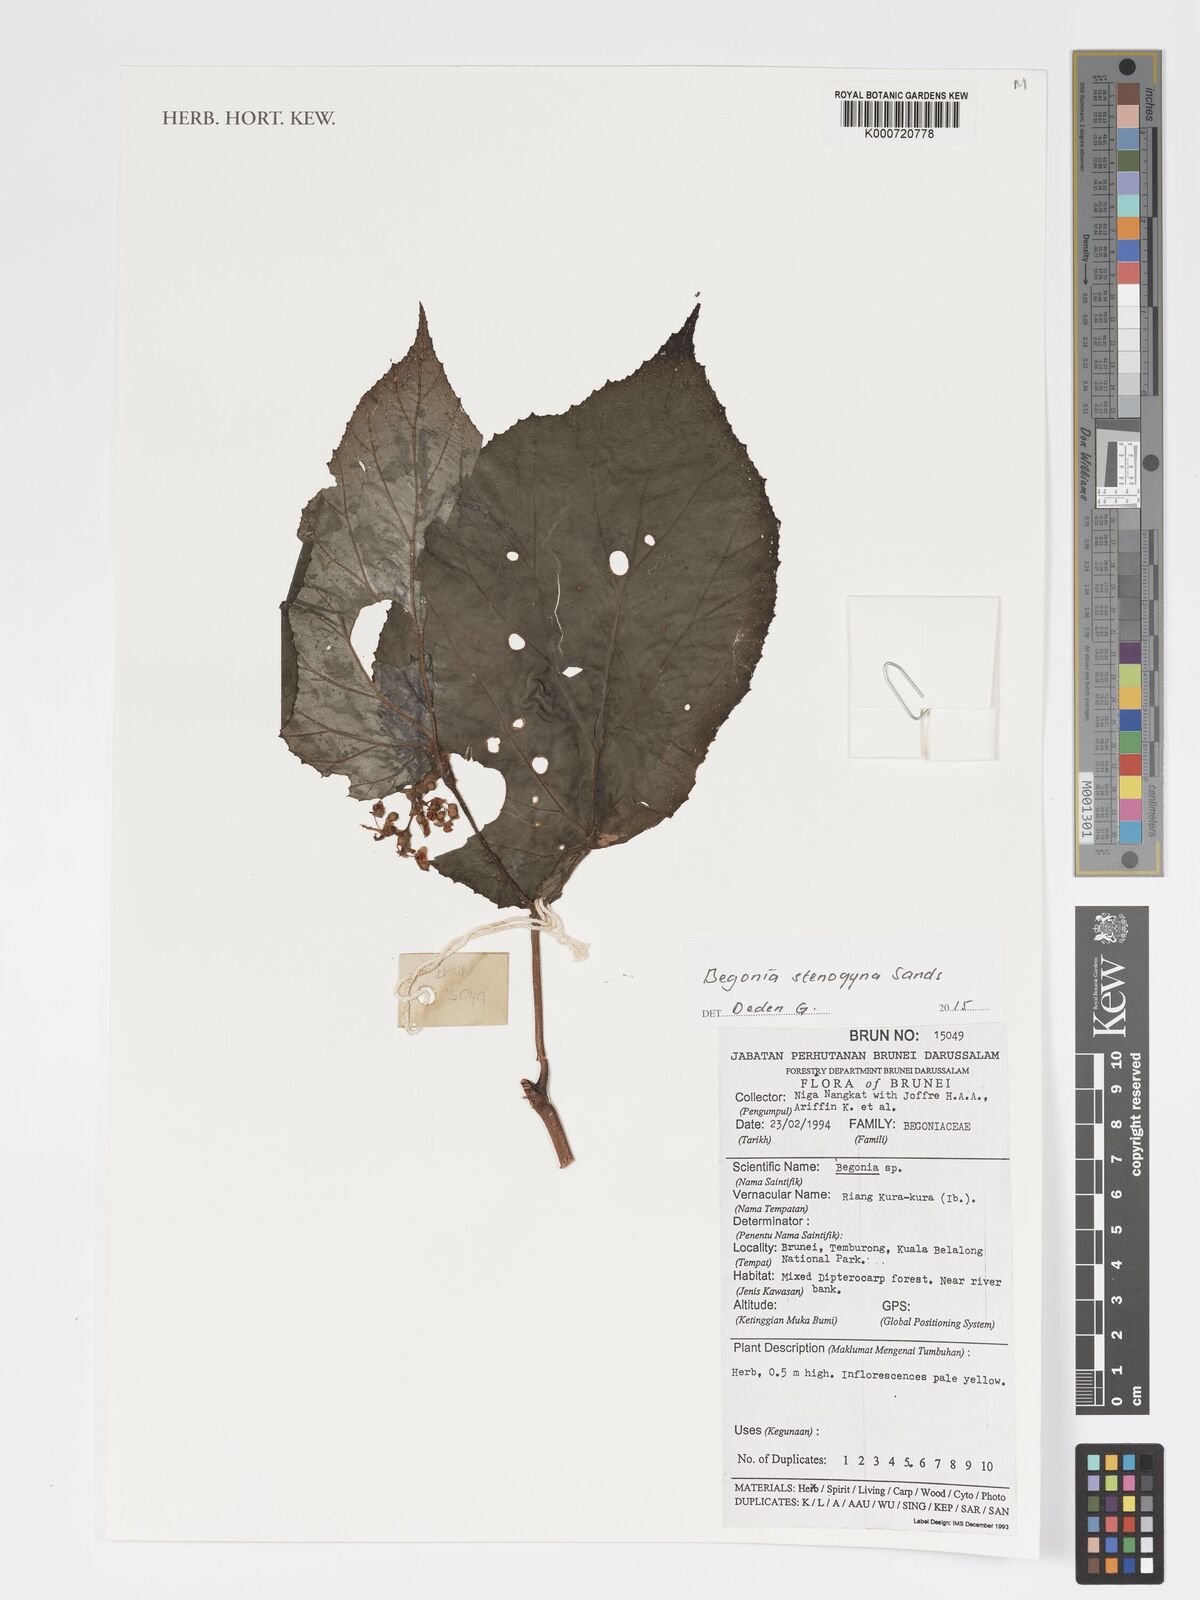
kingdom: Plantae
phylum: Tracheophyta
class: Magnoliopsida
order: Cucurbitales
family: Begoniaceae
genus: Begonia
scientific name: Begonia stenogyna
